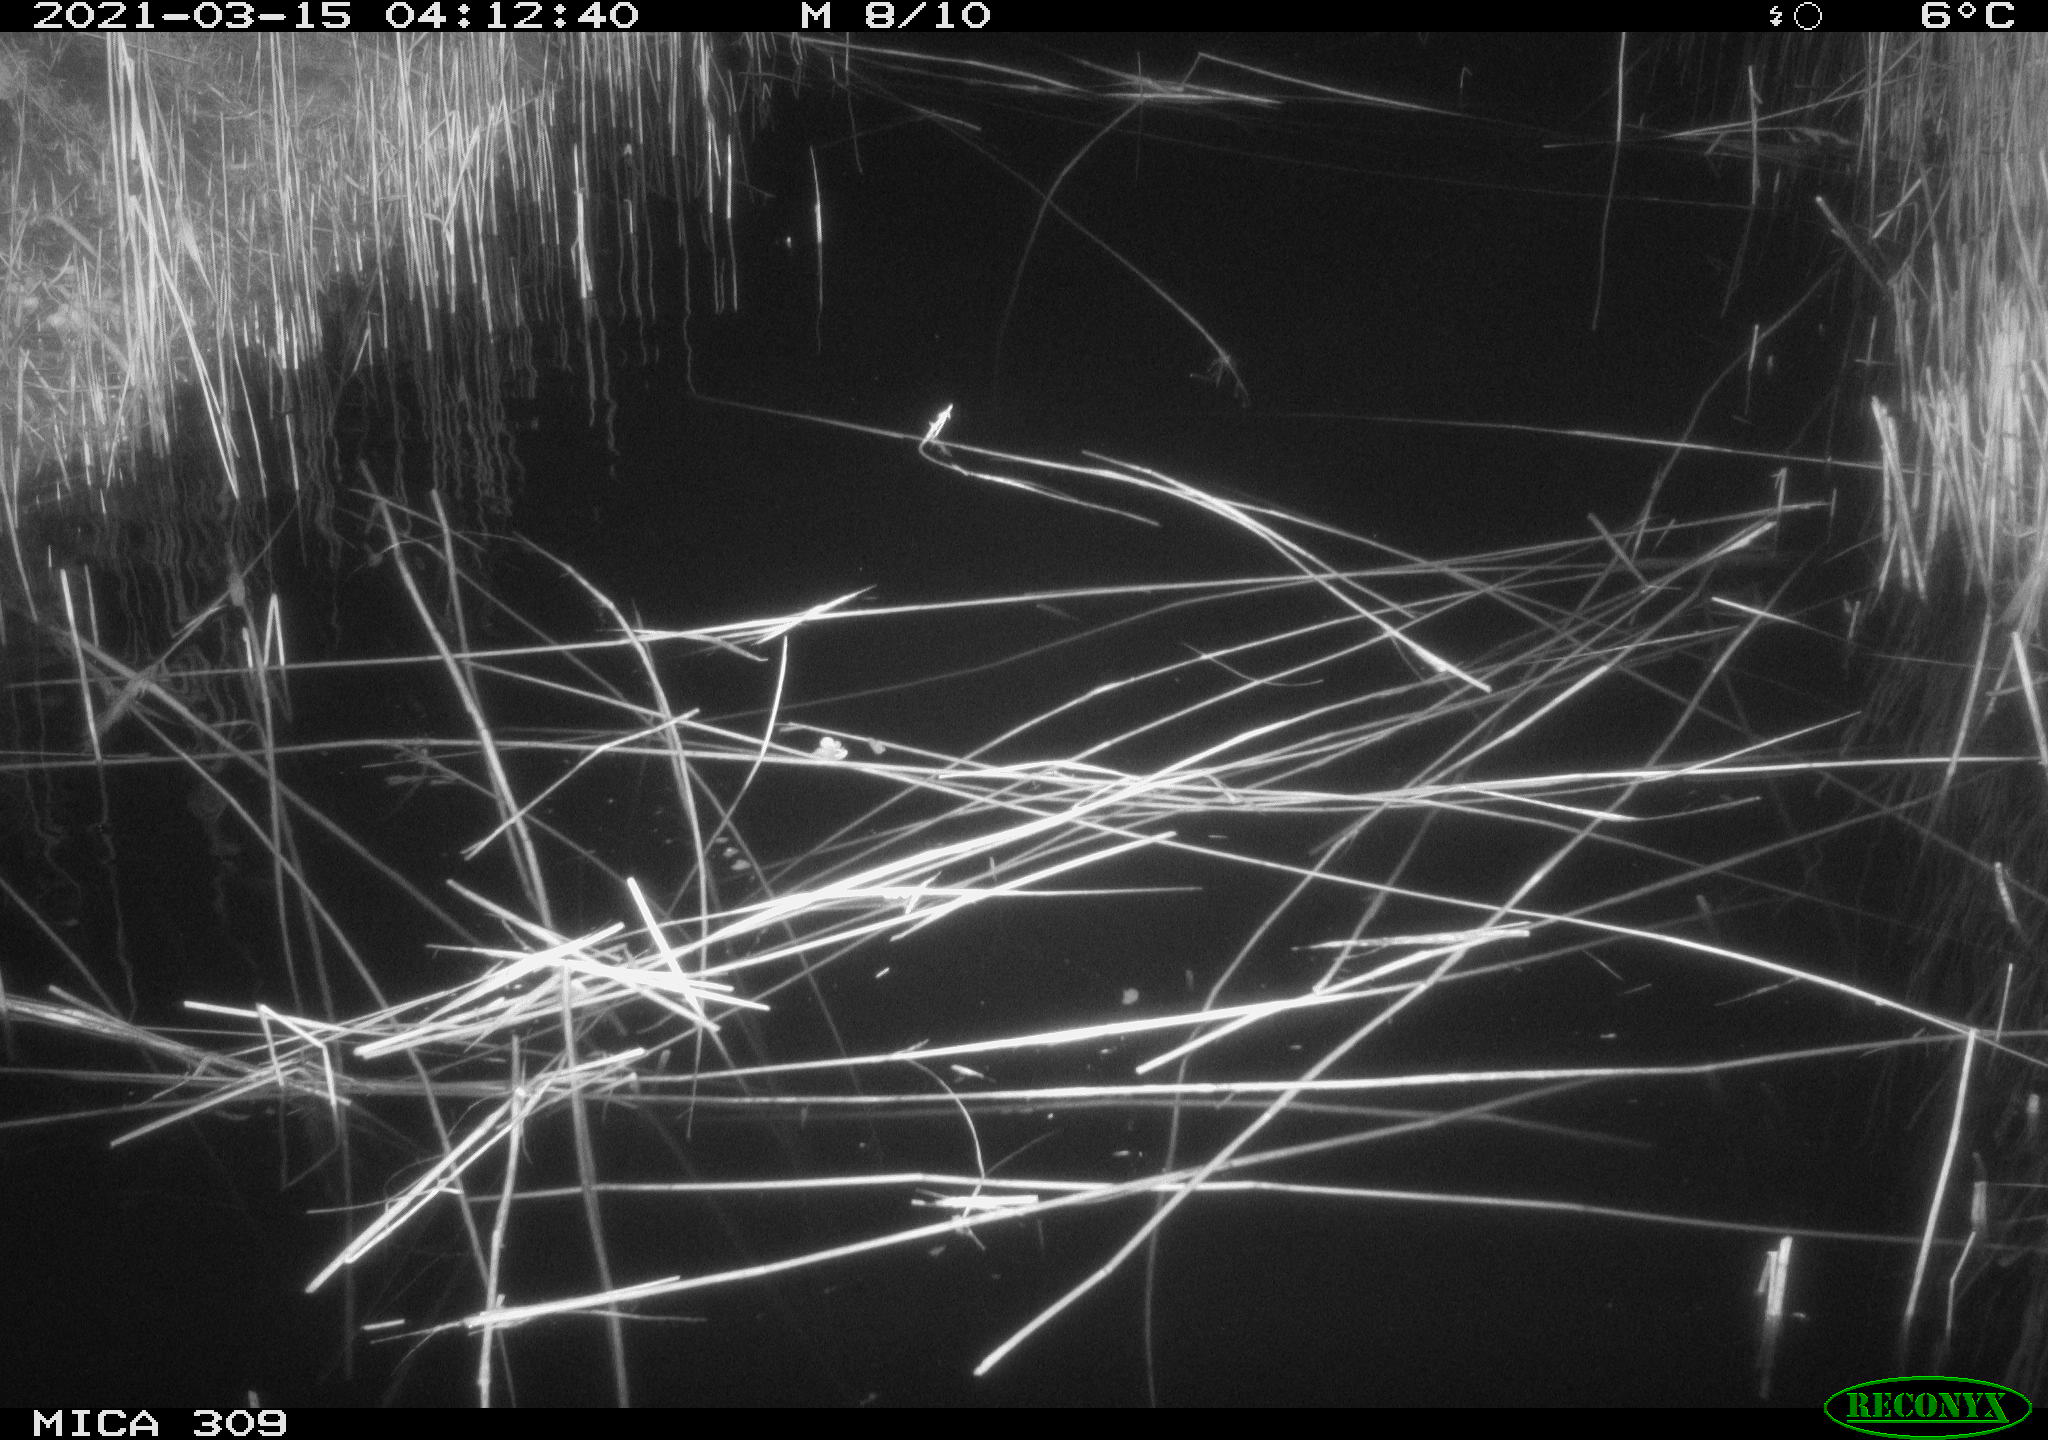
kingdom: Animalia
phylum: Chordata
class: Mammalia
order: Rodentia
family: Muridae
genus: Rattus
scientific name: Rattus norvegicus
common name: Brown rat
